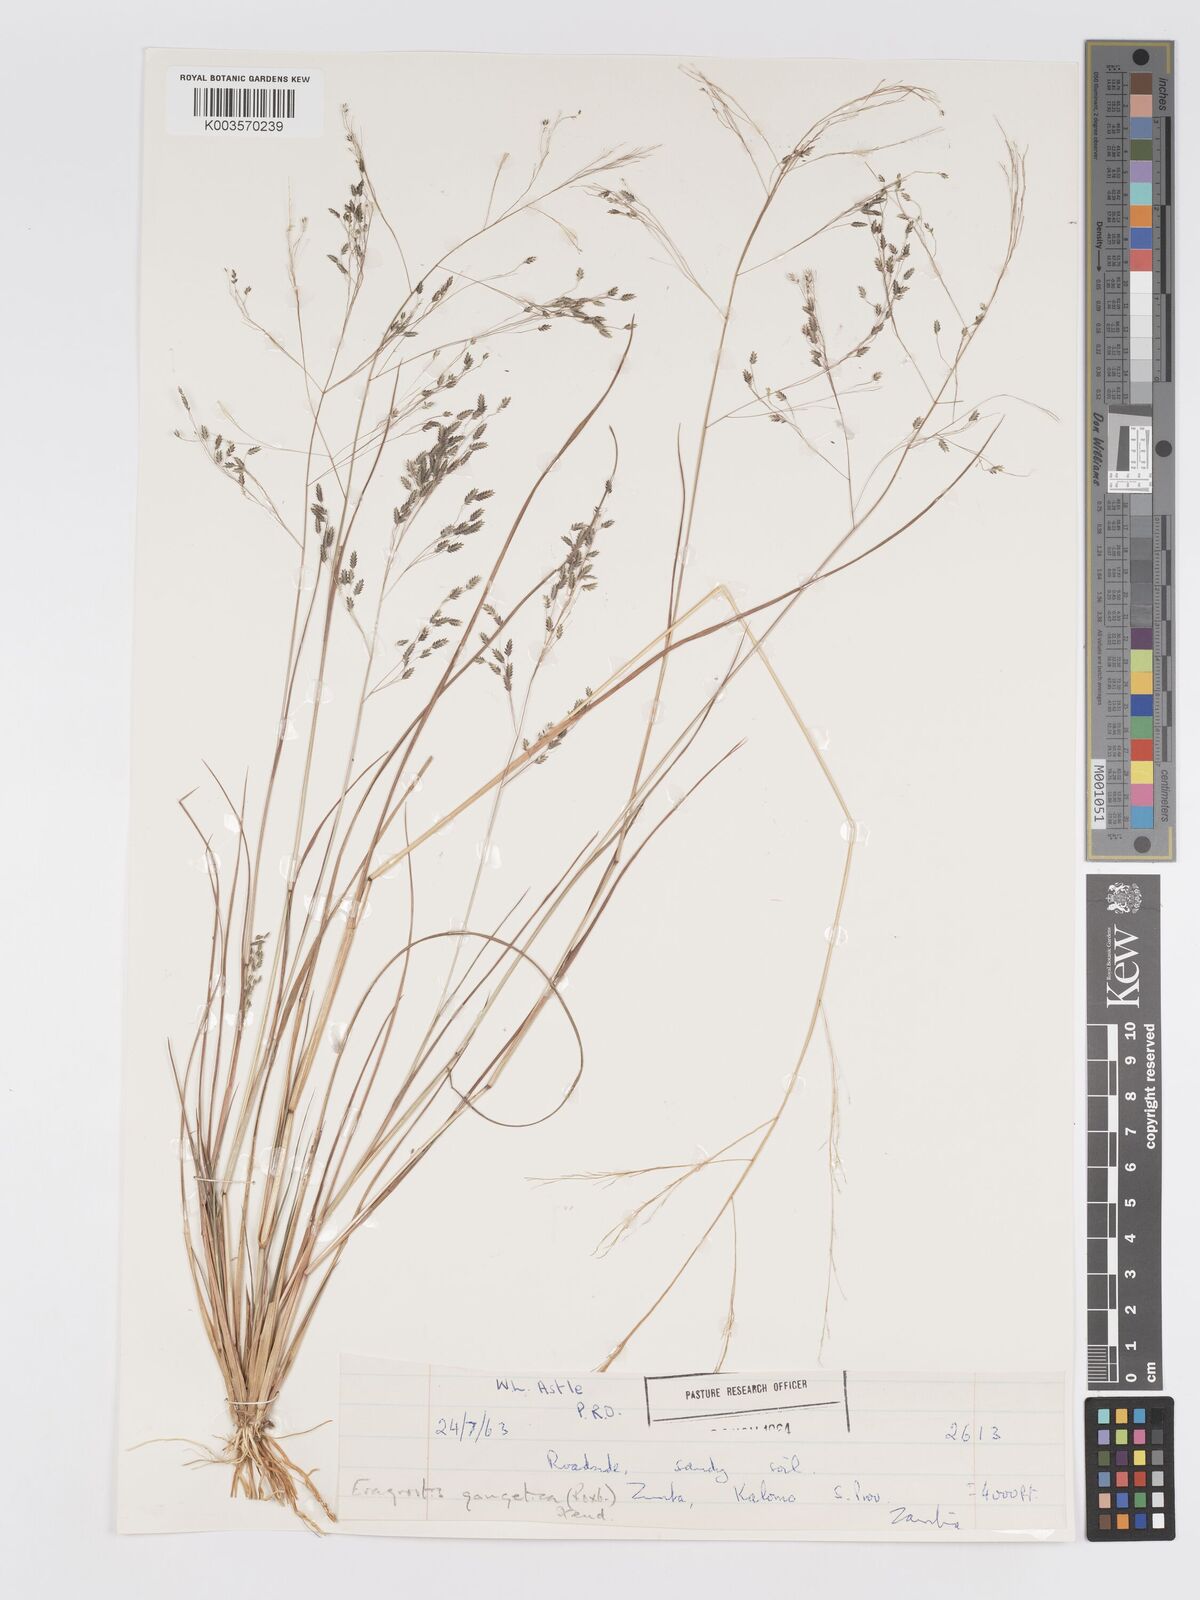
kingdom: Plantae
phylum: Tracheophyta
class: Liliopsida
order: Poales
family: Poaceae
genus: Eragrostis
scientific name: Eragrostis gangetica
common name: Slimflower lovegrass
